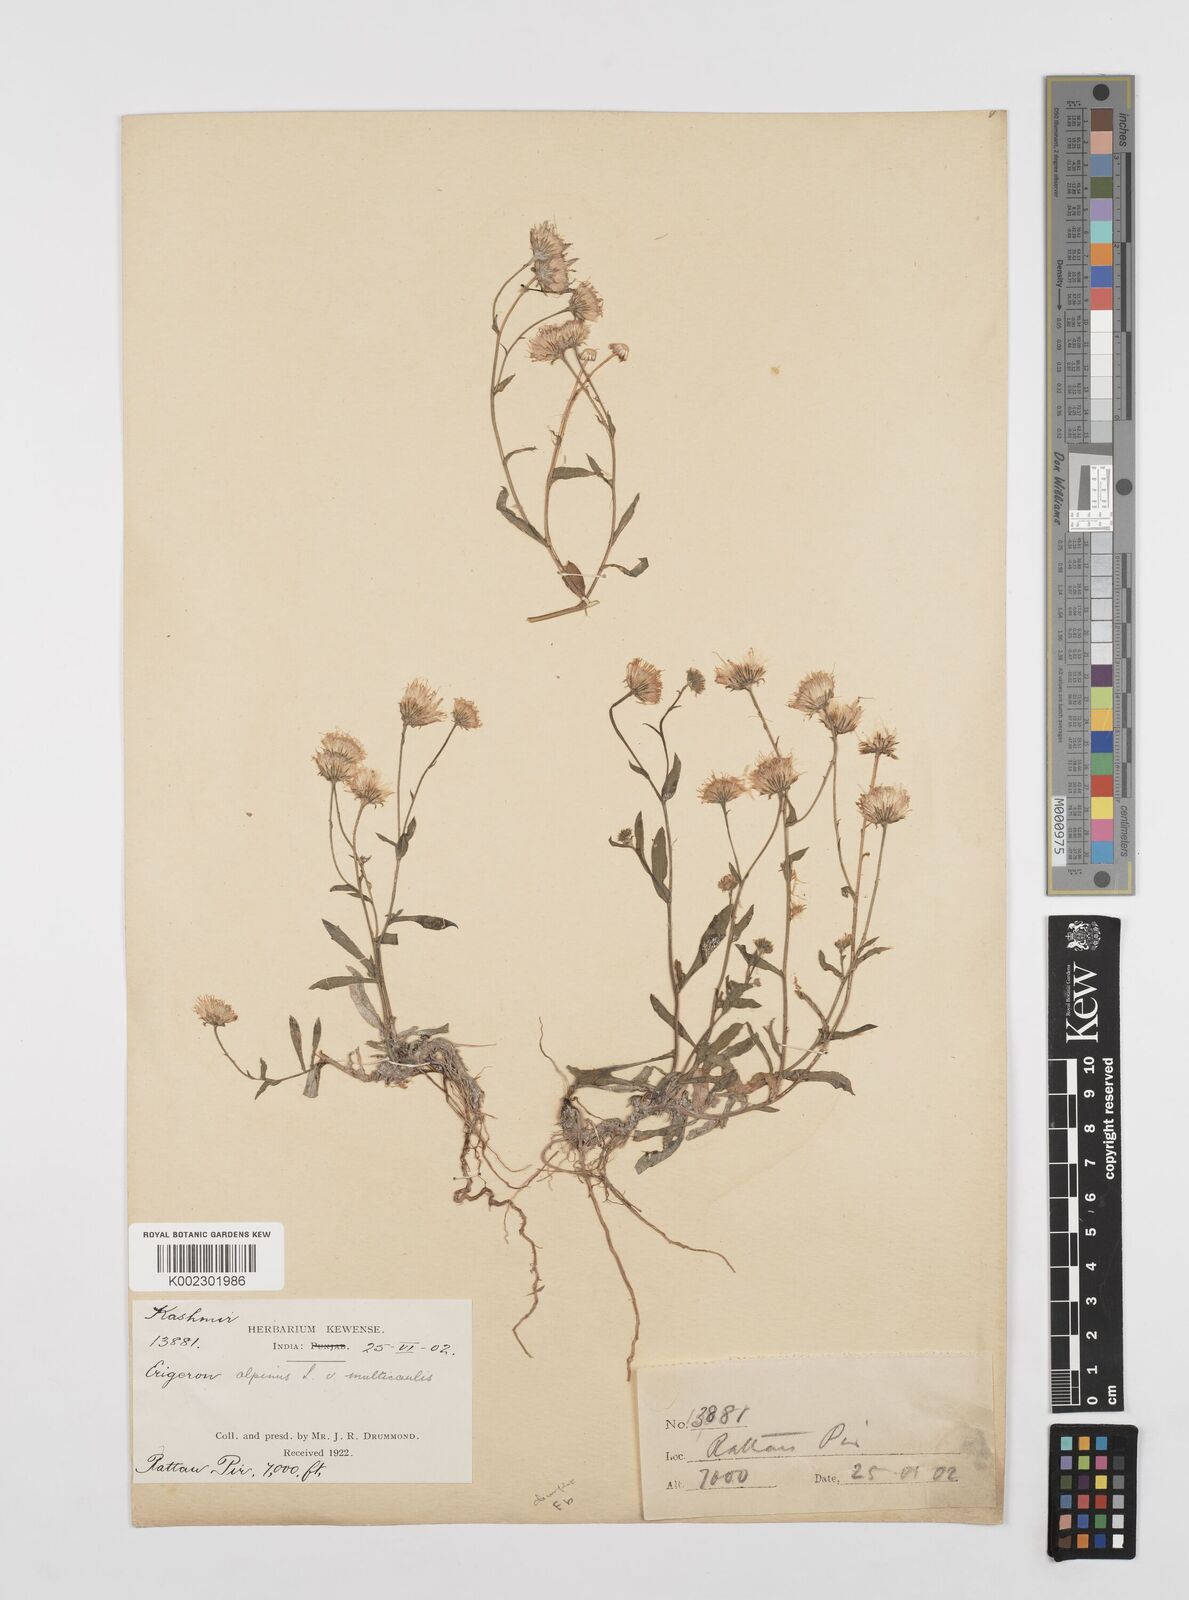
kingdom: Plantae
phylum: Tracheophyta
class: Magnoliopsida
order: Asterales
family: Asteraceae
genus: Erigeron
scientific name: Erigeron alpinus
